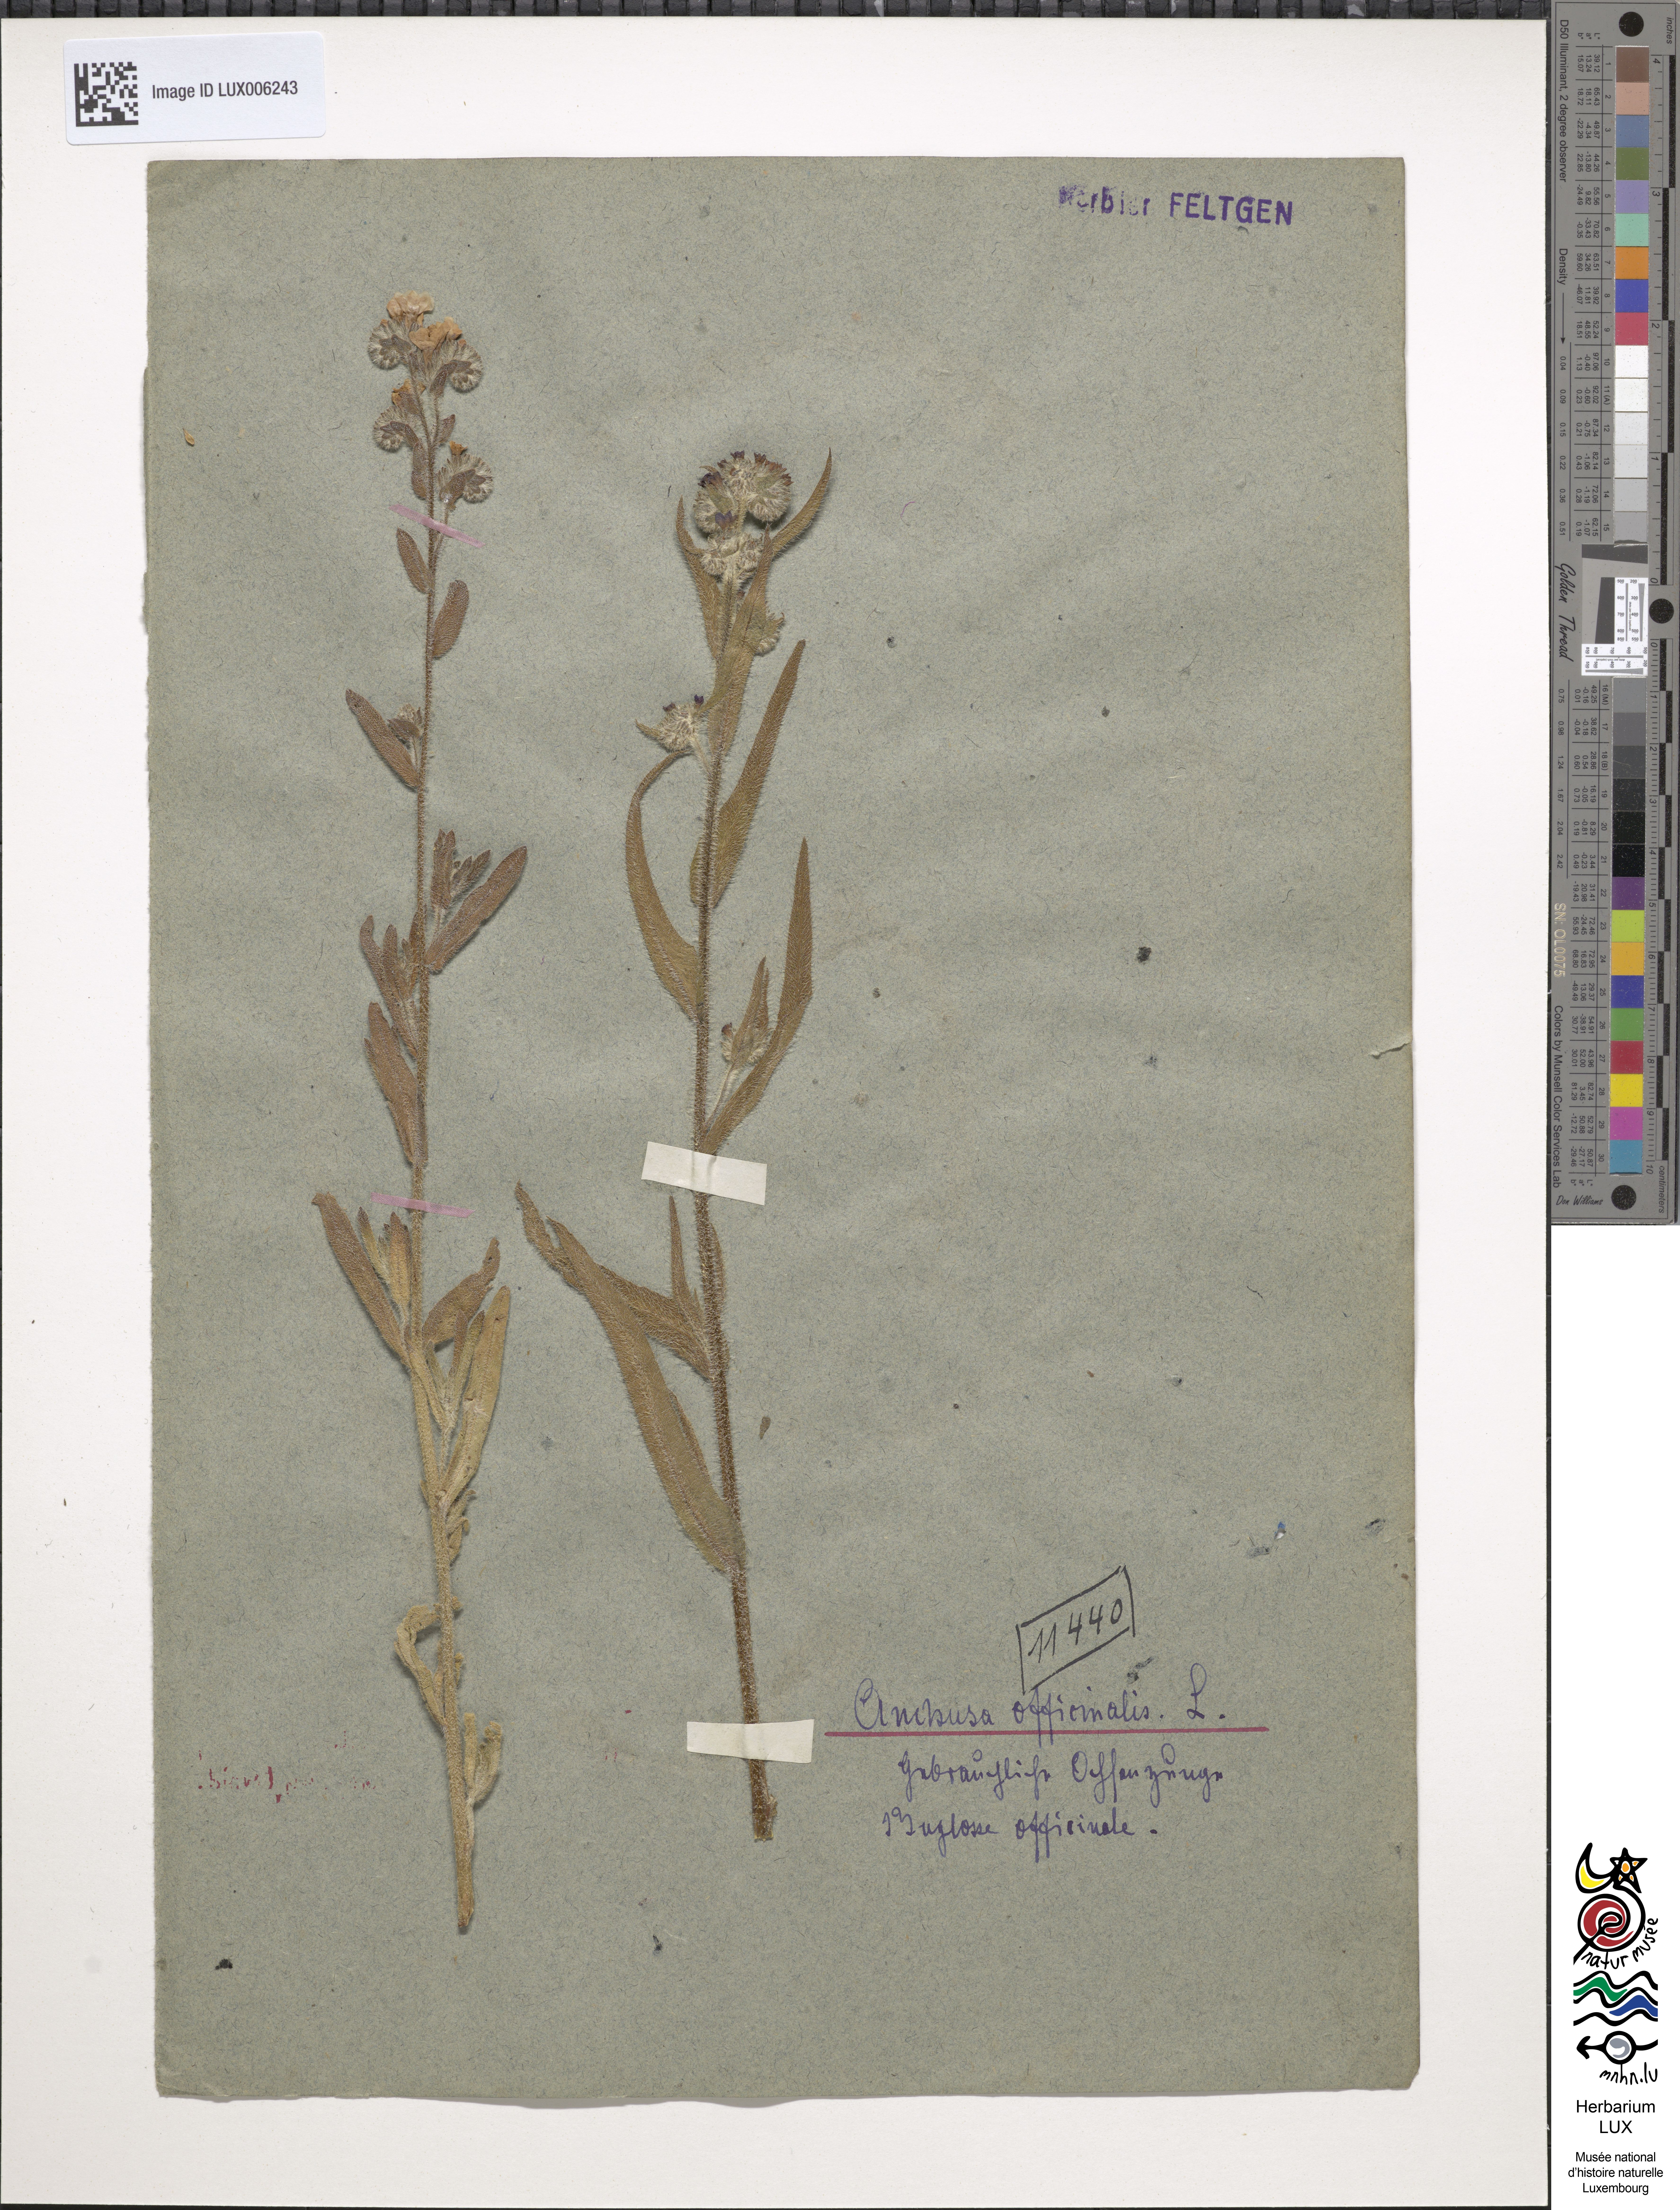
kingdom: Plantae
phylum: Tracheophyta
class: Magnoliopsida
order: Boraginales
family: Boraginaceae
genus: Anchusa
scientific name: Anchusa officinalis
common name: Alkanet
